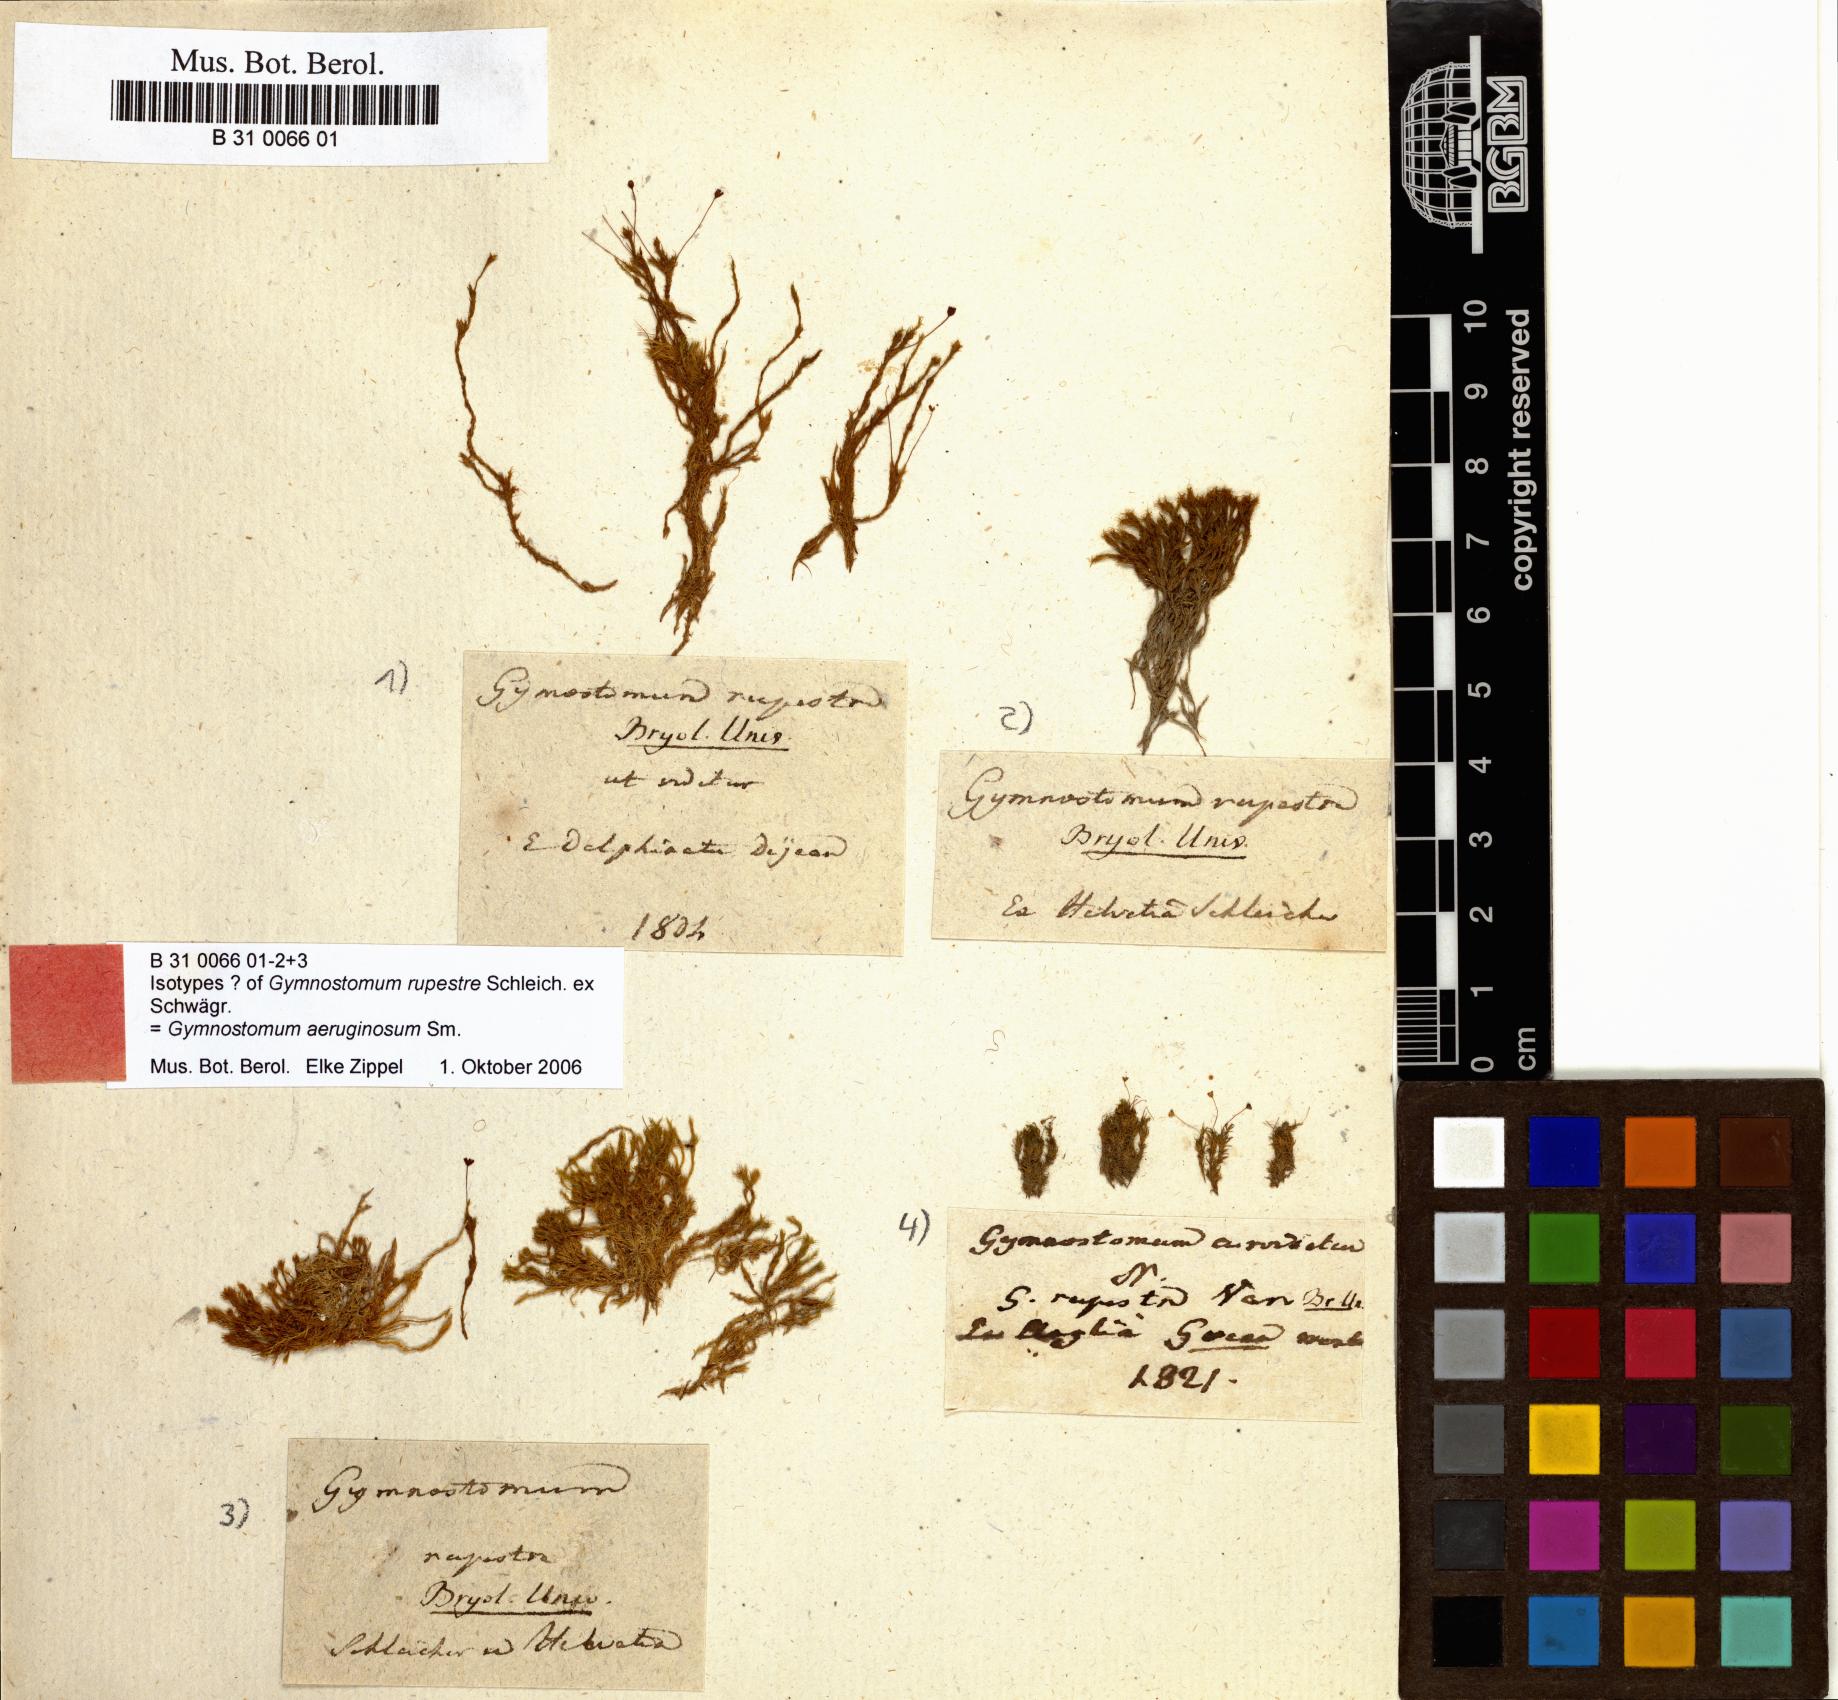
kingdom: Plantae
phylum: Bryophyta
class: Bryopsida
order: Pottiales
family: Pottiaceae
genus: Gymnostomum
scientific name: Gymnostomum aeruginosum
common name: Verdigris tufa-moss
